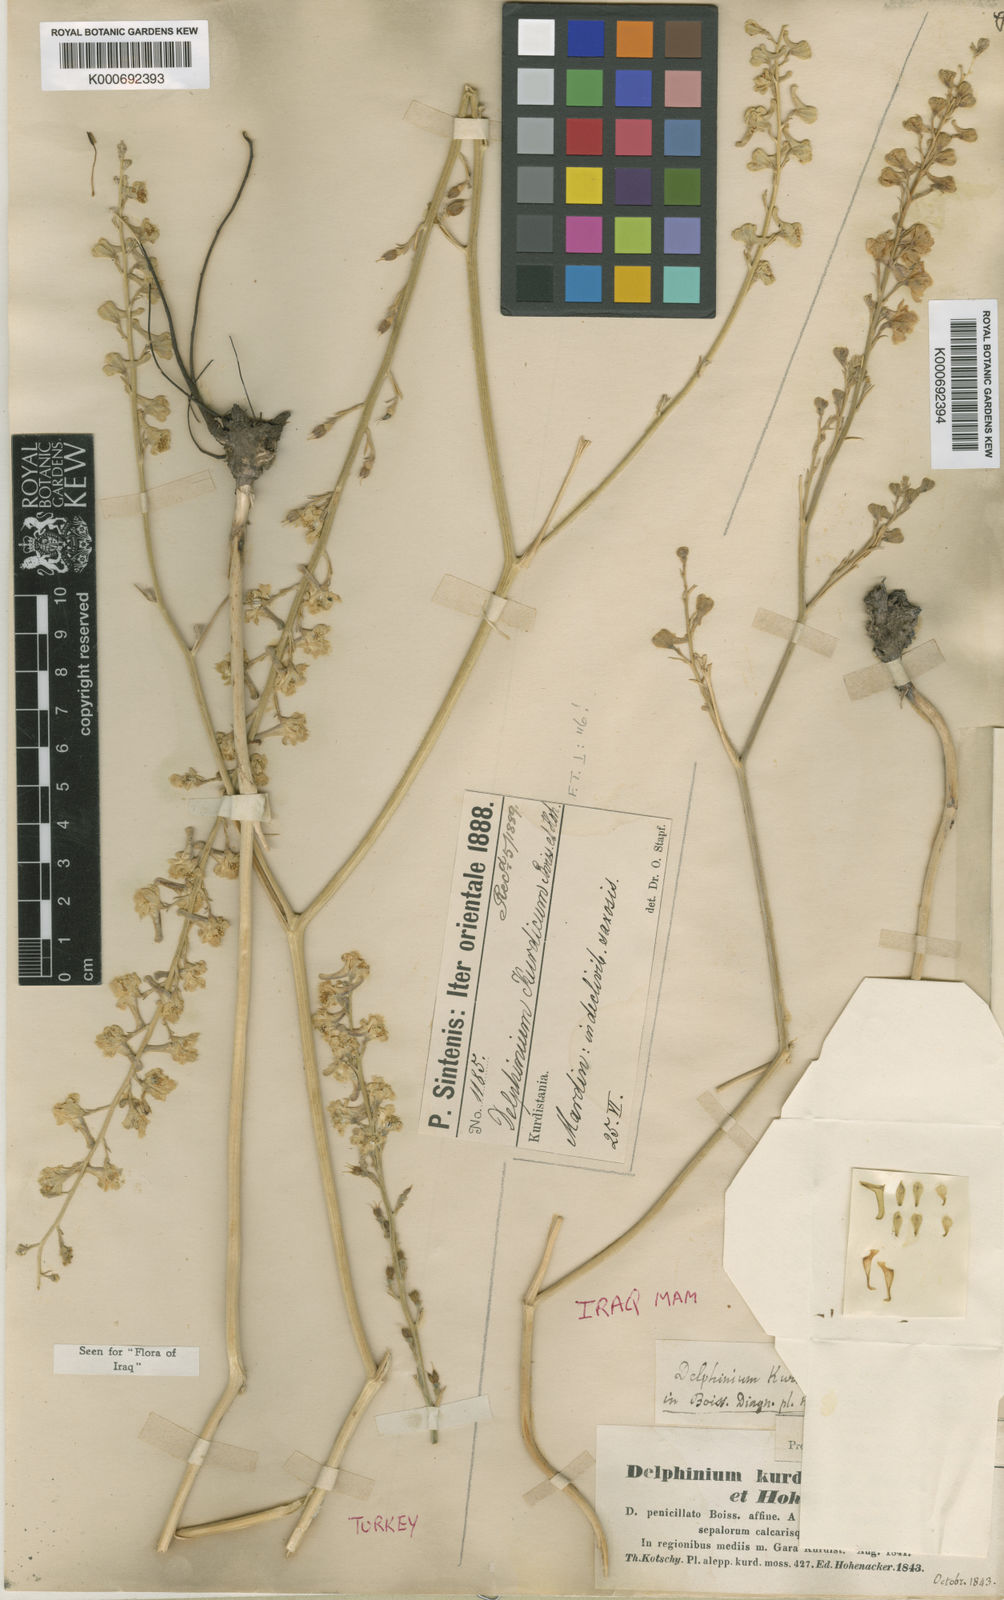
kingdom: Plantae
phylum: Tracheophyta
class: Magnoliopsida
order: Ranunculales
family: Ranunculaceae
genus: Delphinium
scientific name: Delphinium kurdicum
